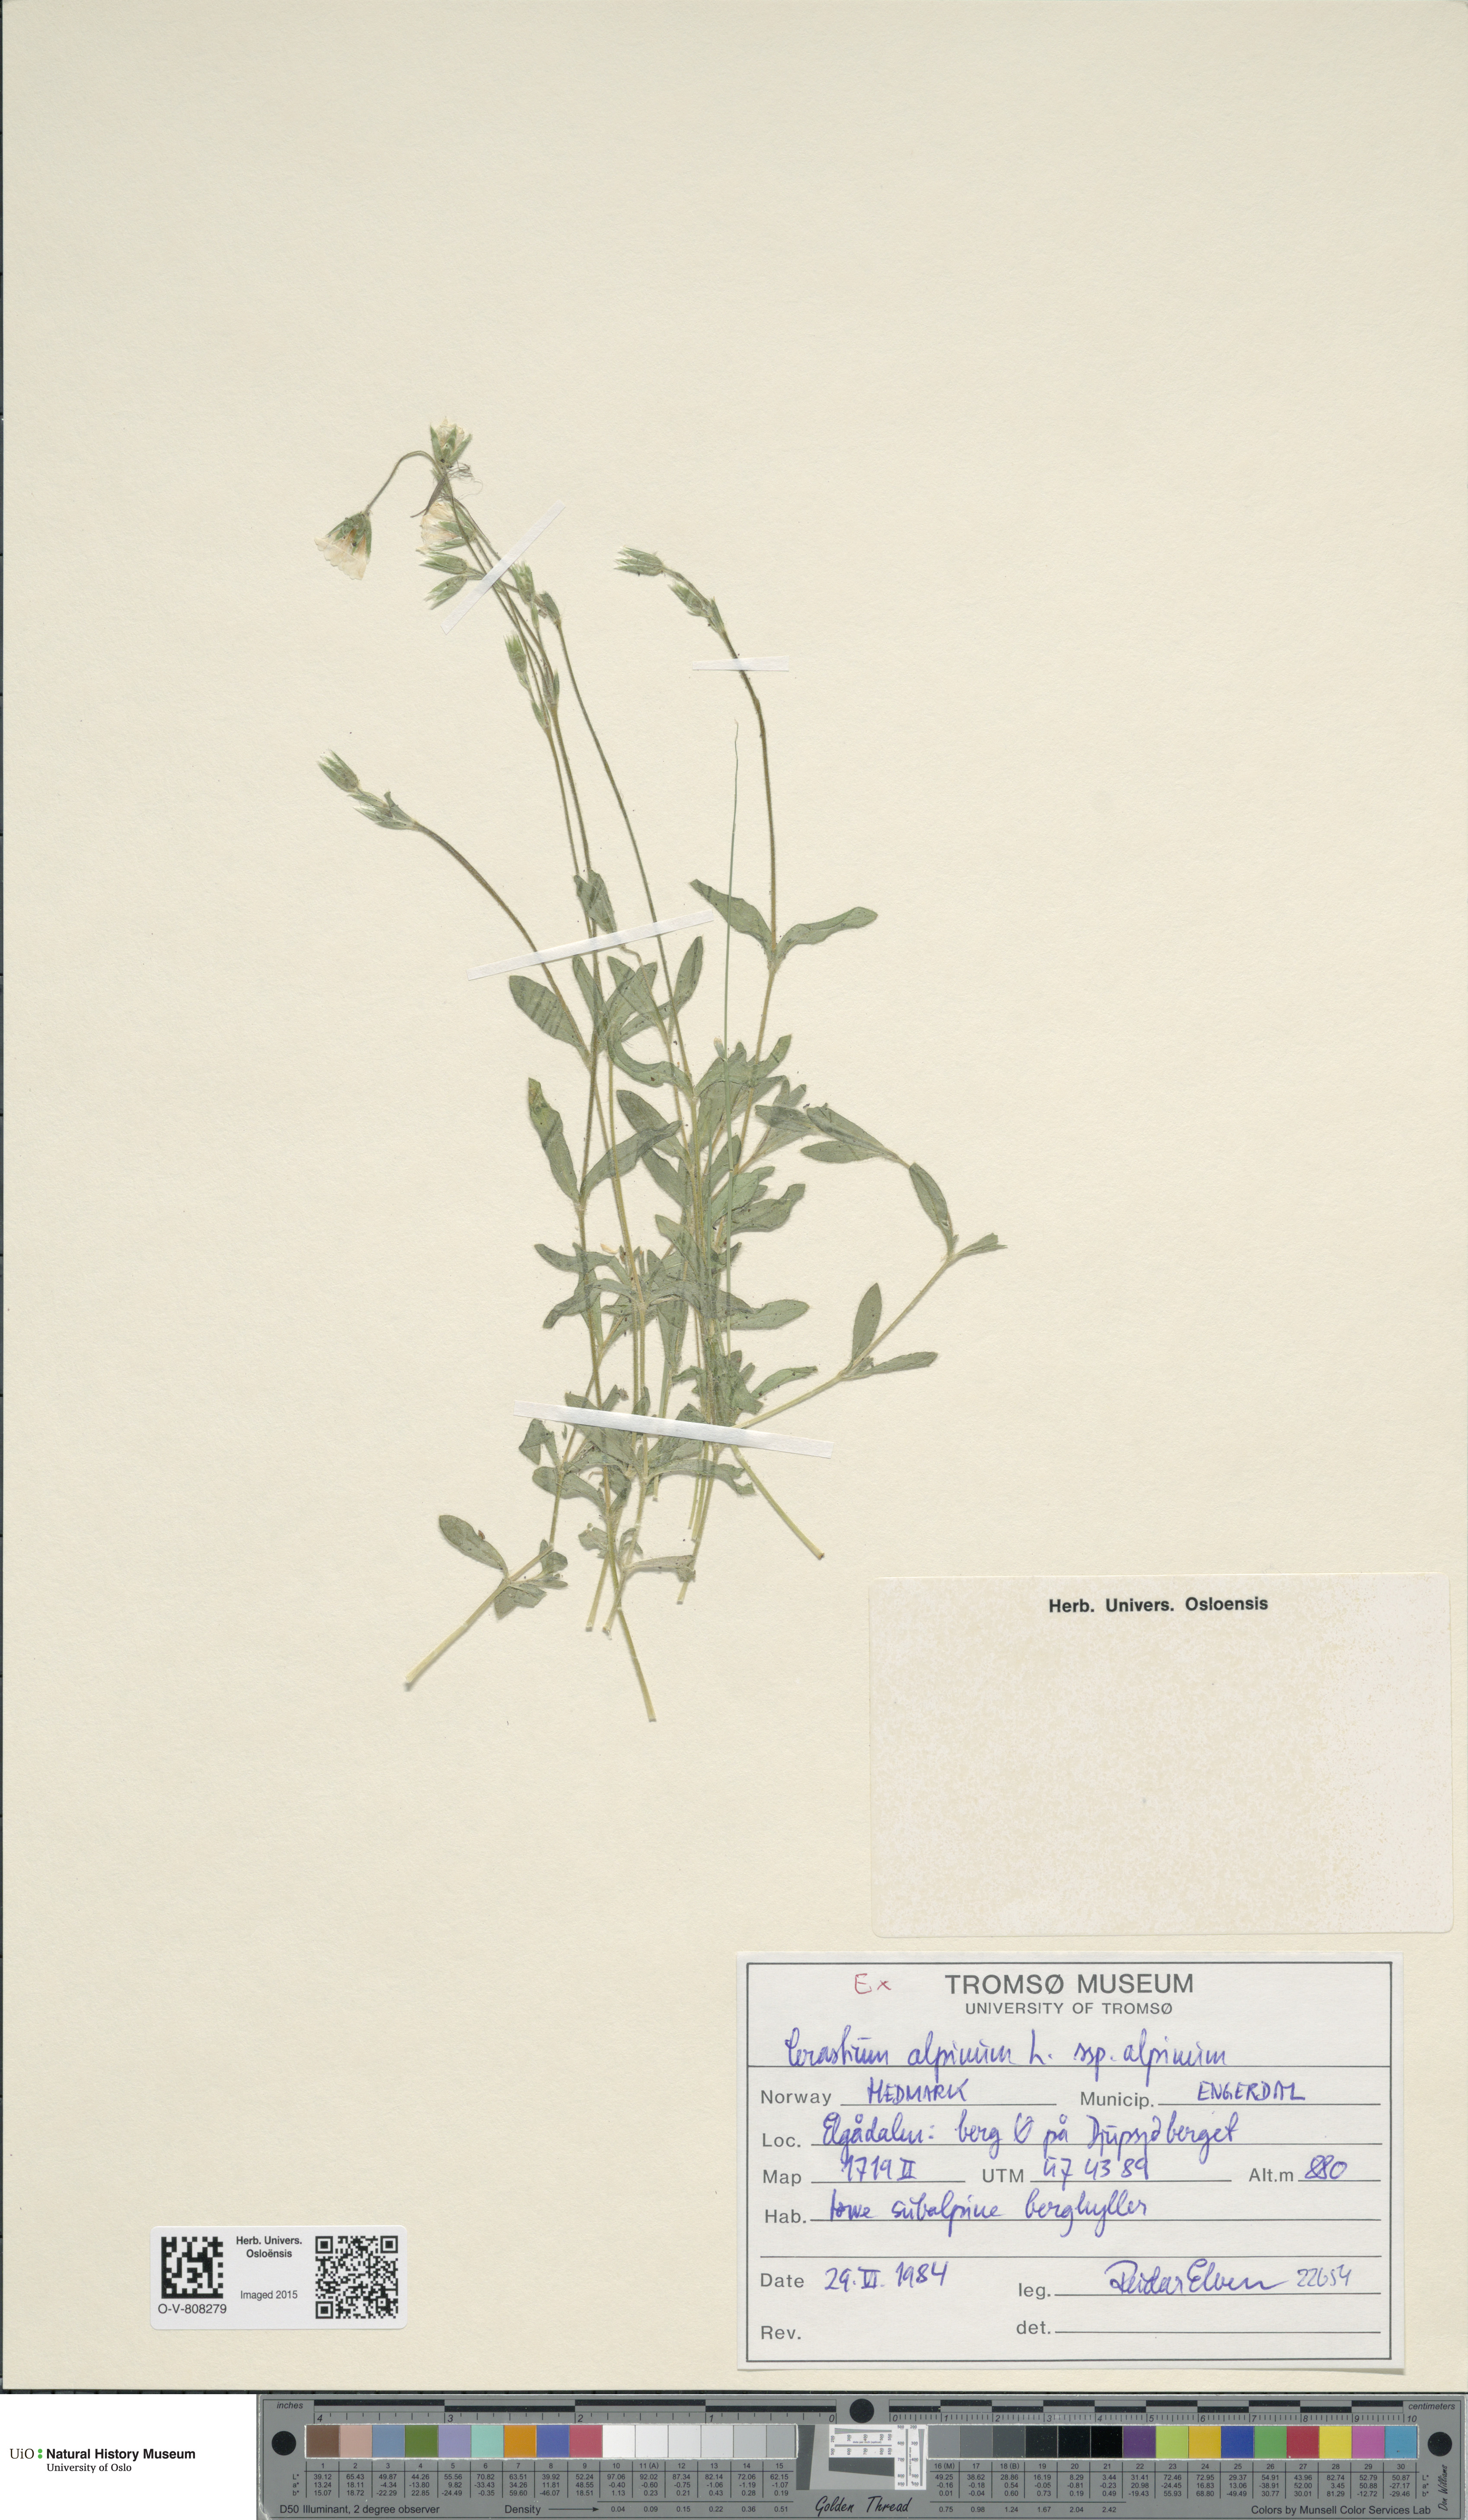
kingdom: Plantae
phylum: Tracheophyta
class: Magnoliopsida
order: Caryophyllales
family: Caryophyllaceae
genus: Cerastium
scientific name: Cerastium alpinum
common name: Alpine mouse-ear
